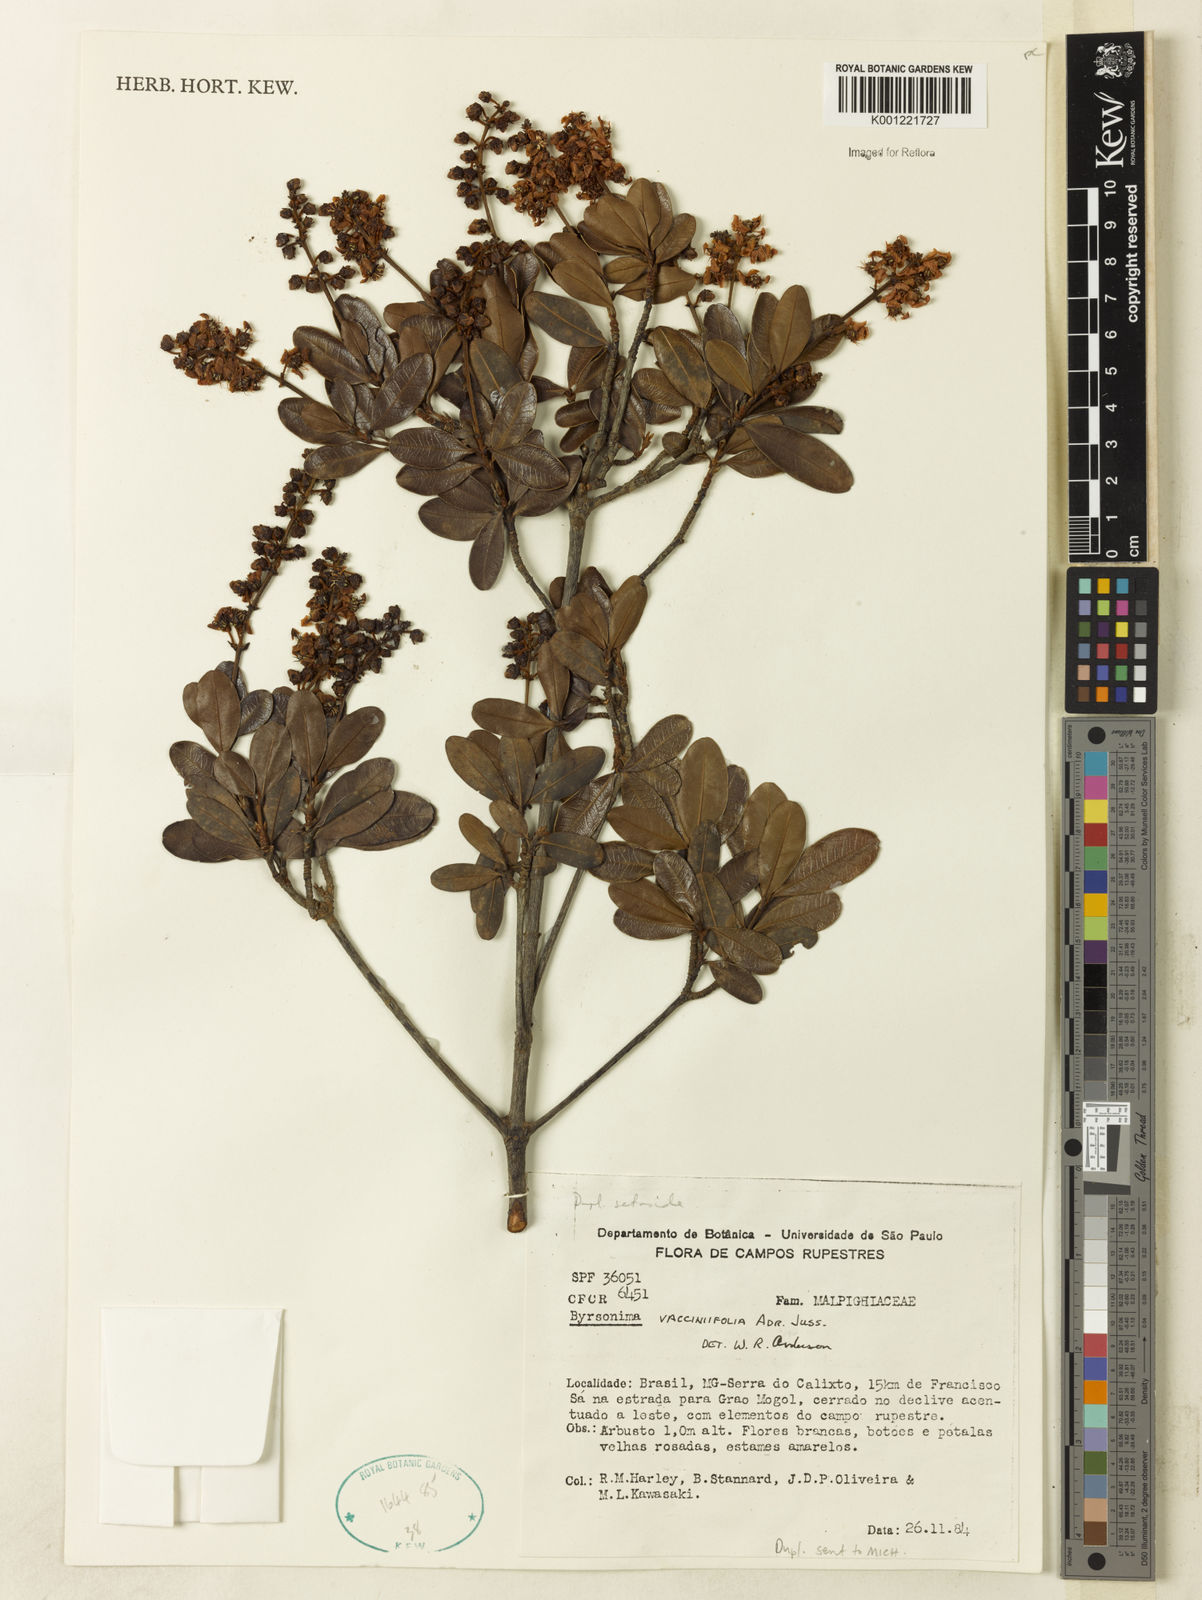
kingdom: Plantae
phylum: Tracheophyta
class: Magnoliopsida
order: Malpighiales
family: Malpighiaceae
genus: Byrsonima
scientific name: Byrsonima vacciniifolia
